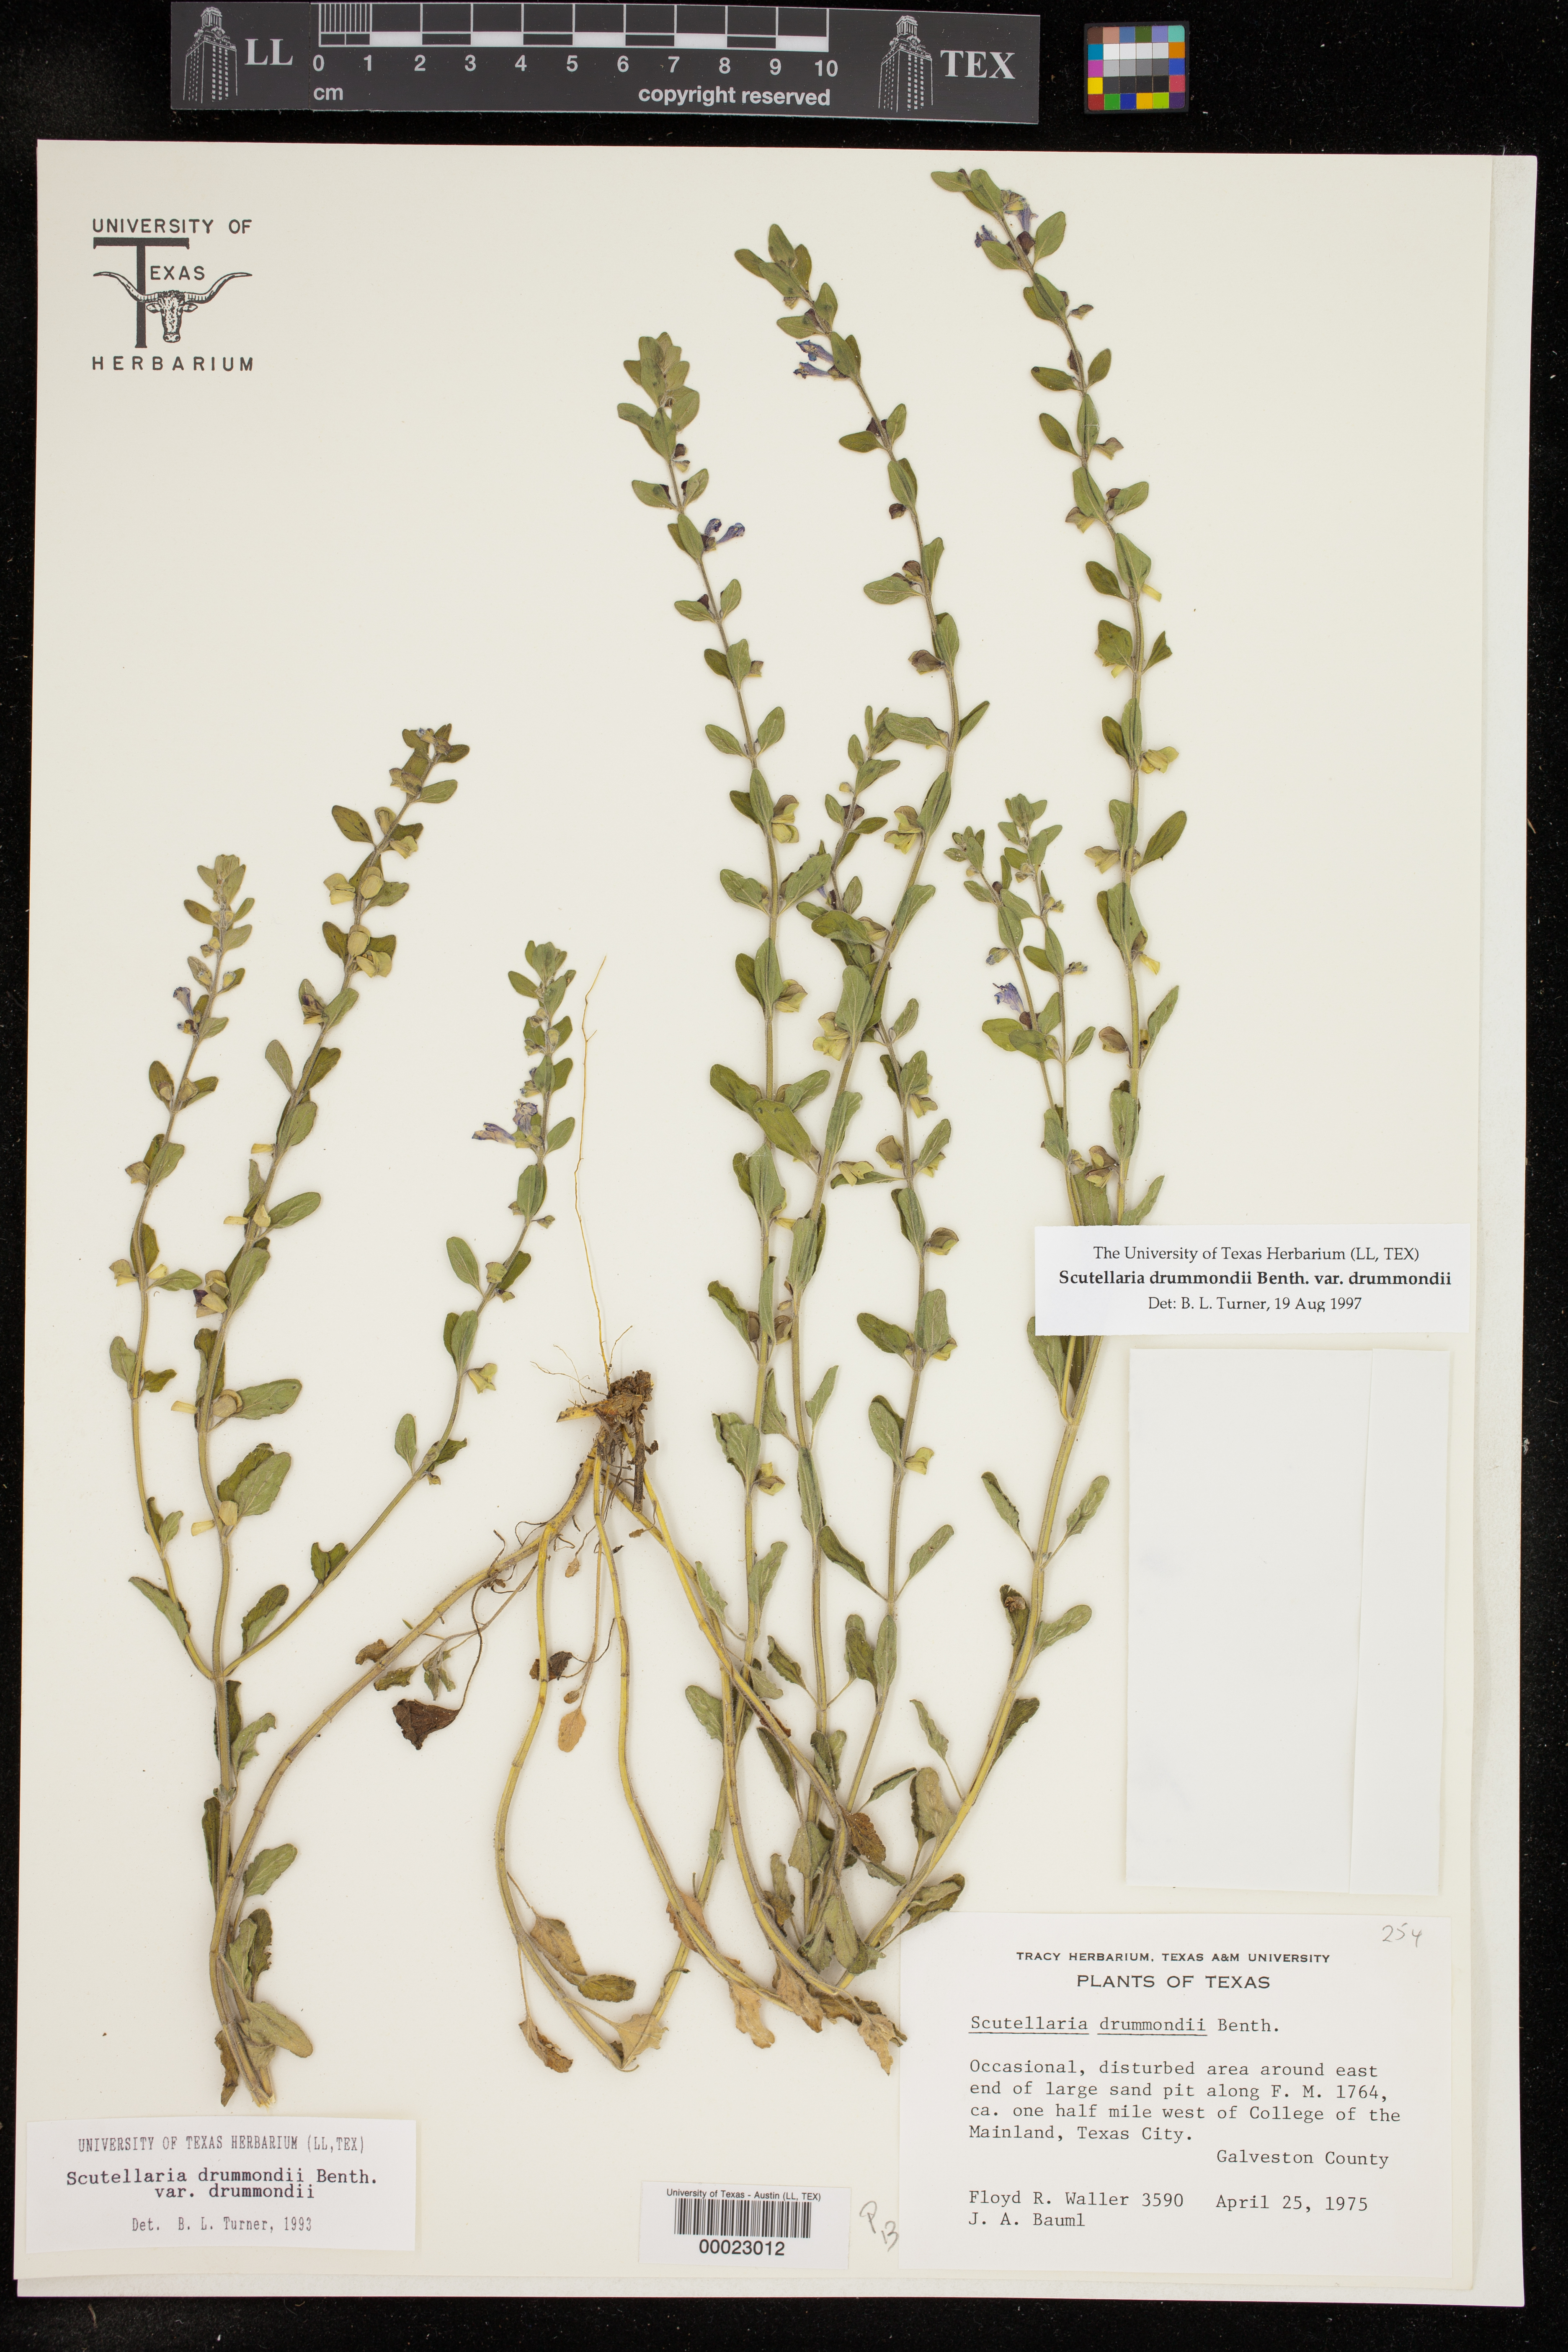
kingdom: Plantae
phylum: Tracheophyta
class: Magnoliopsida
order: Lamiales
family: Lamiaceae
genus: Scutellaria
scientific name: Scutellaria drummondii
